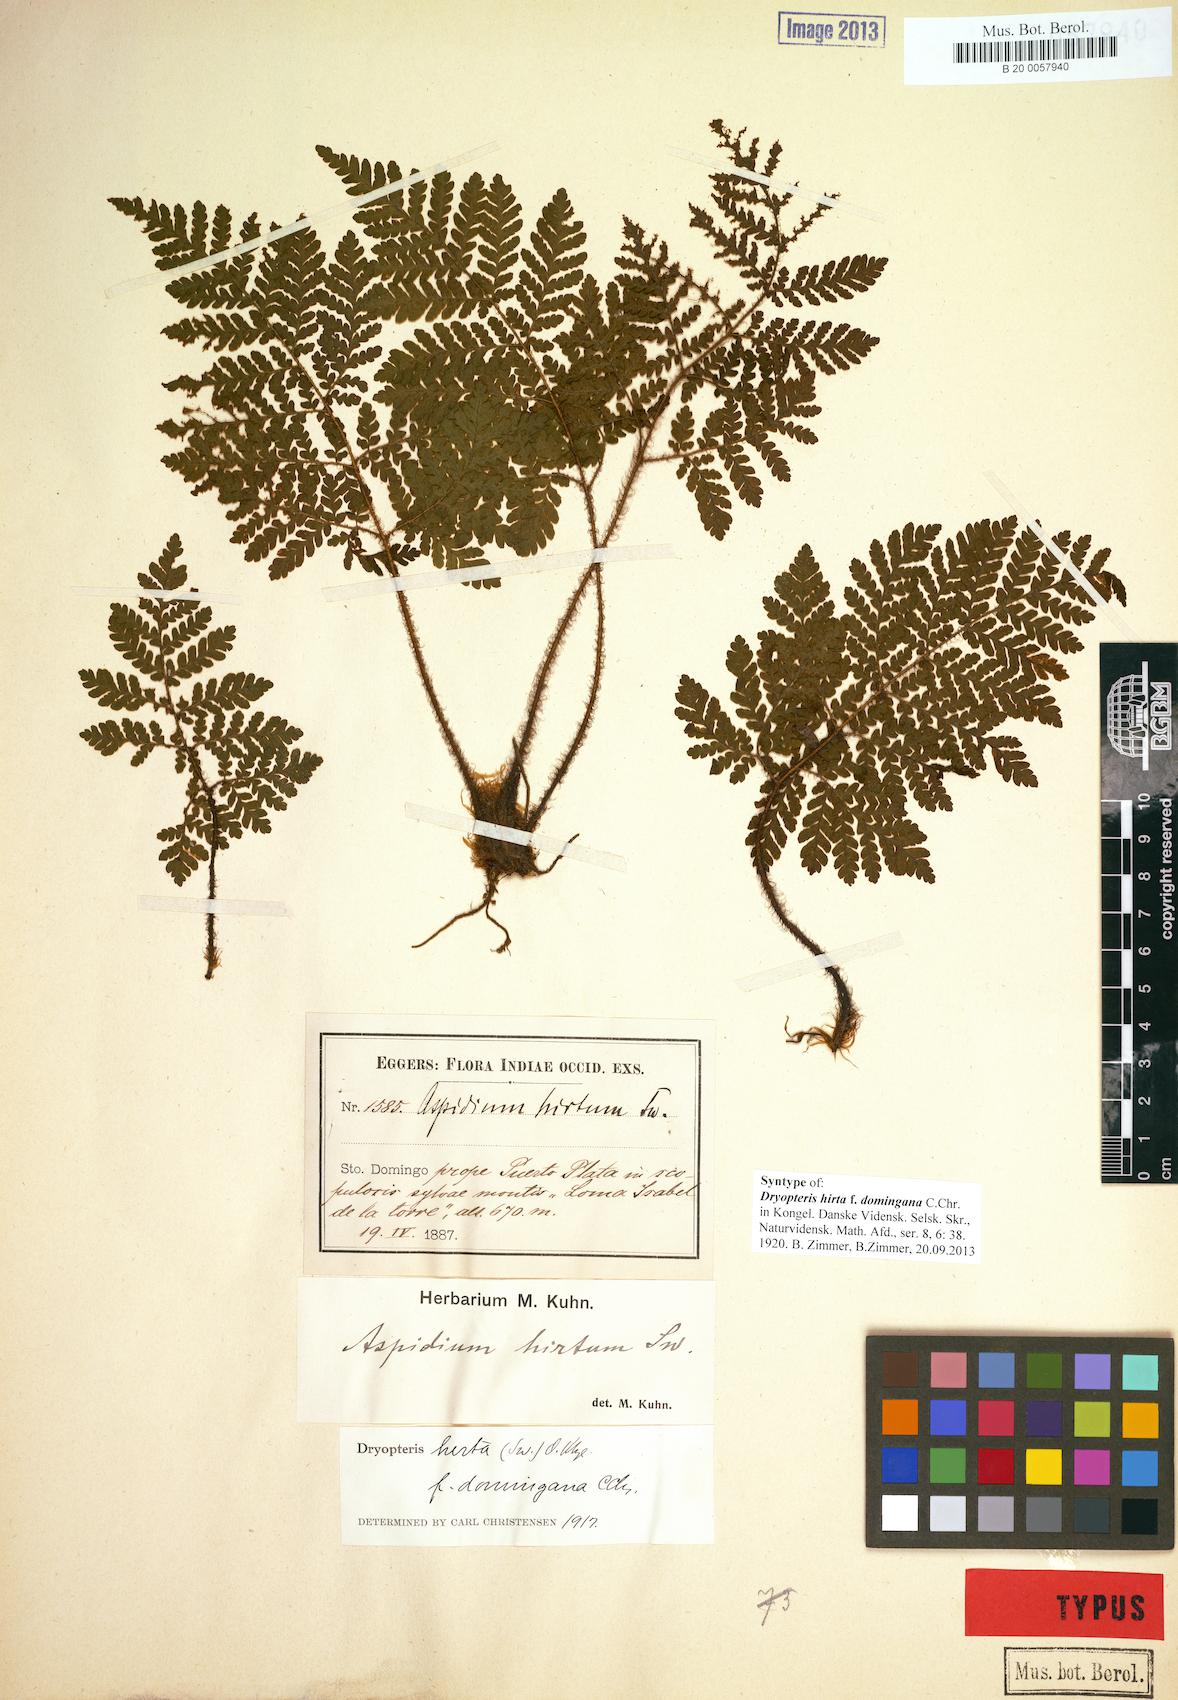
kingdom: Plantae
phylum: Tracheophyta
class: Polypodiopsida
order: Polypodiales
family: Dryopteridaceae
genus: Ctenitis
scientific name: Ctenitis hirta
